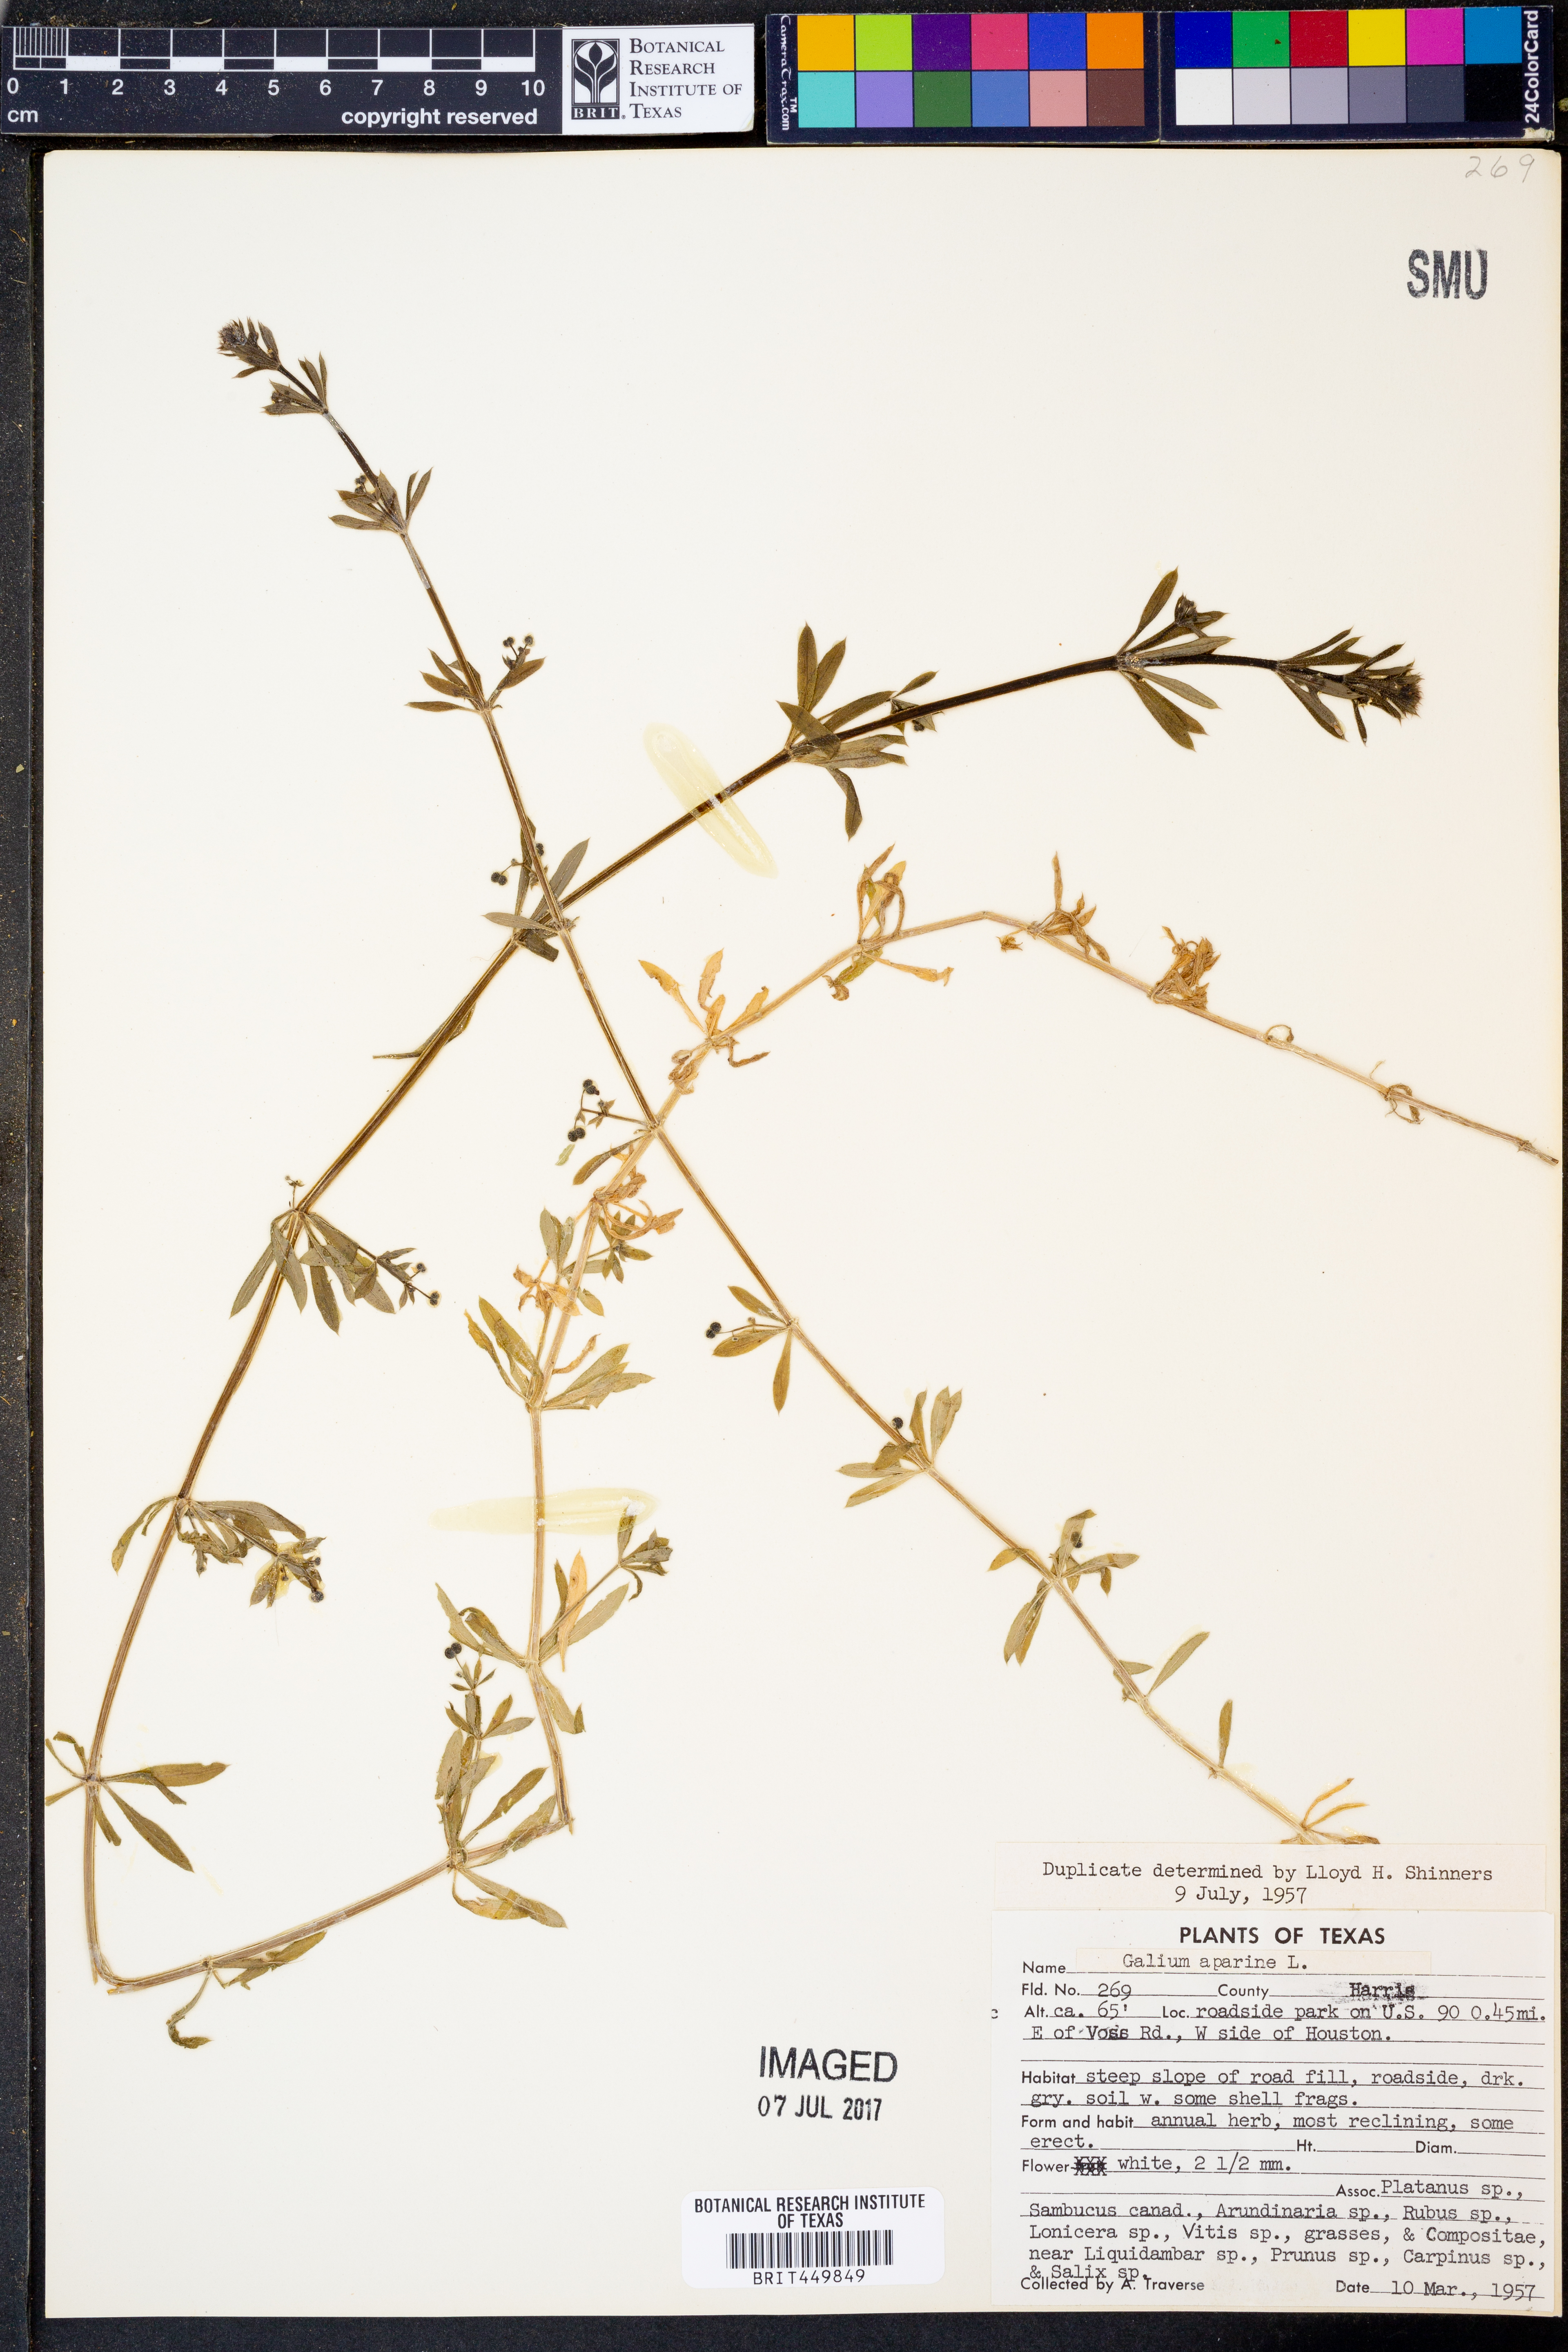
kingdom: Plantae
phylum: Tracheophyta
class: Magnoliopsida
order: Gentianales
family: Rubiaceae
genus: Galium
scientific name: Galium aparine
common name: Cleavers
